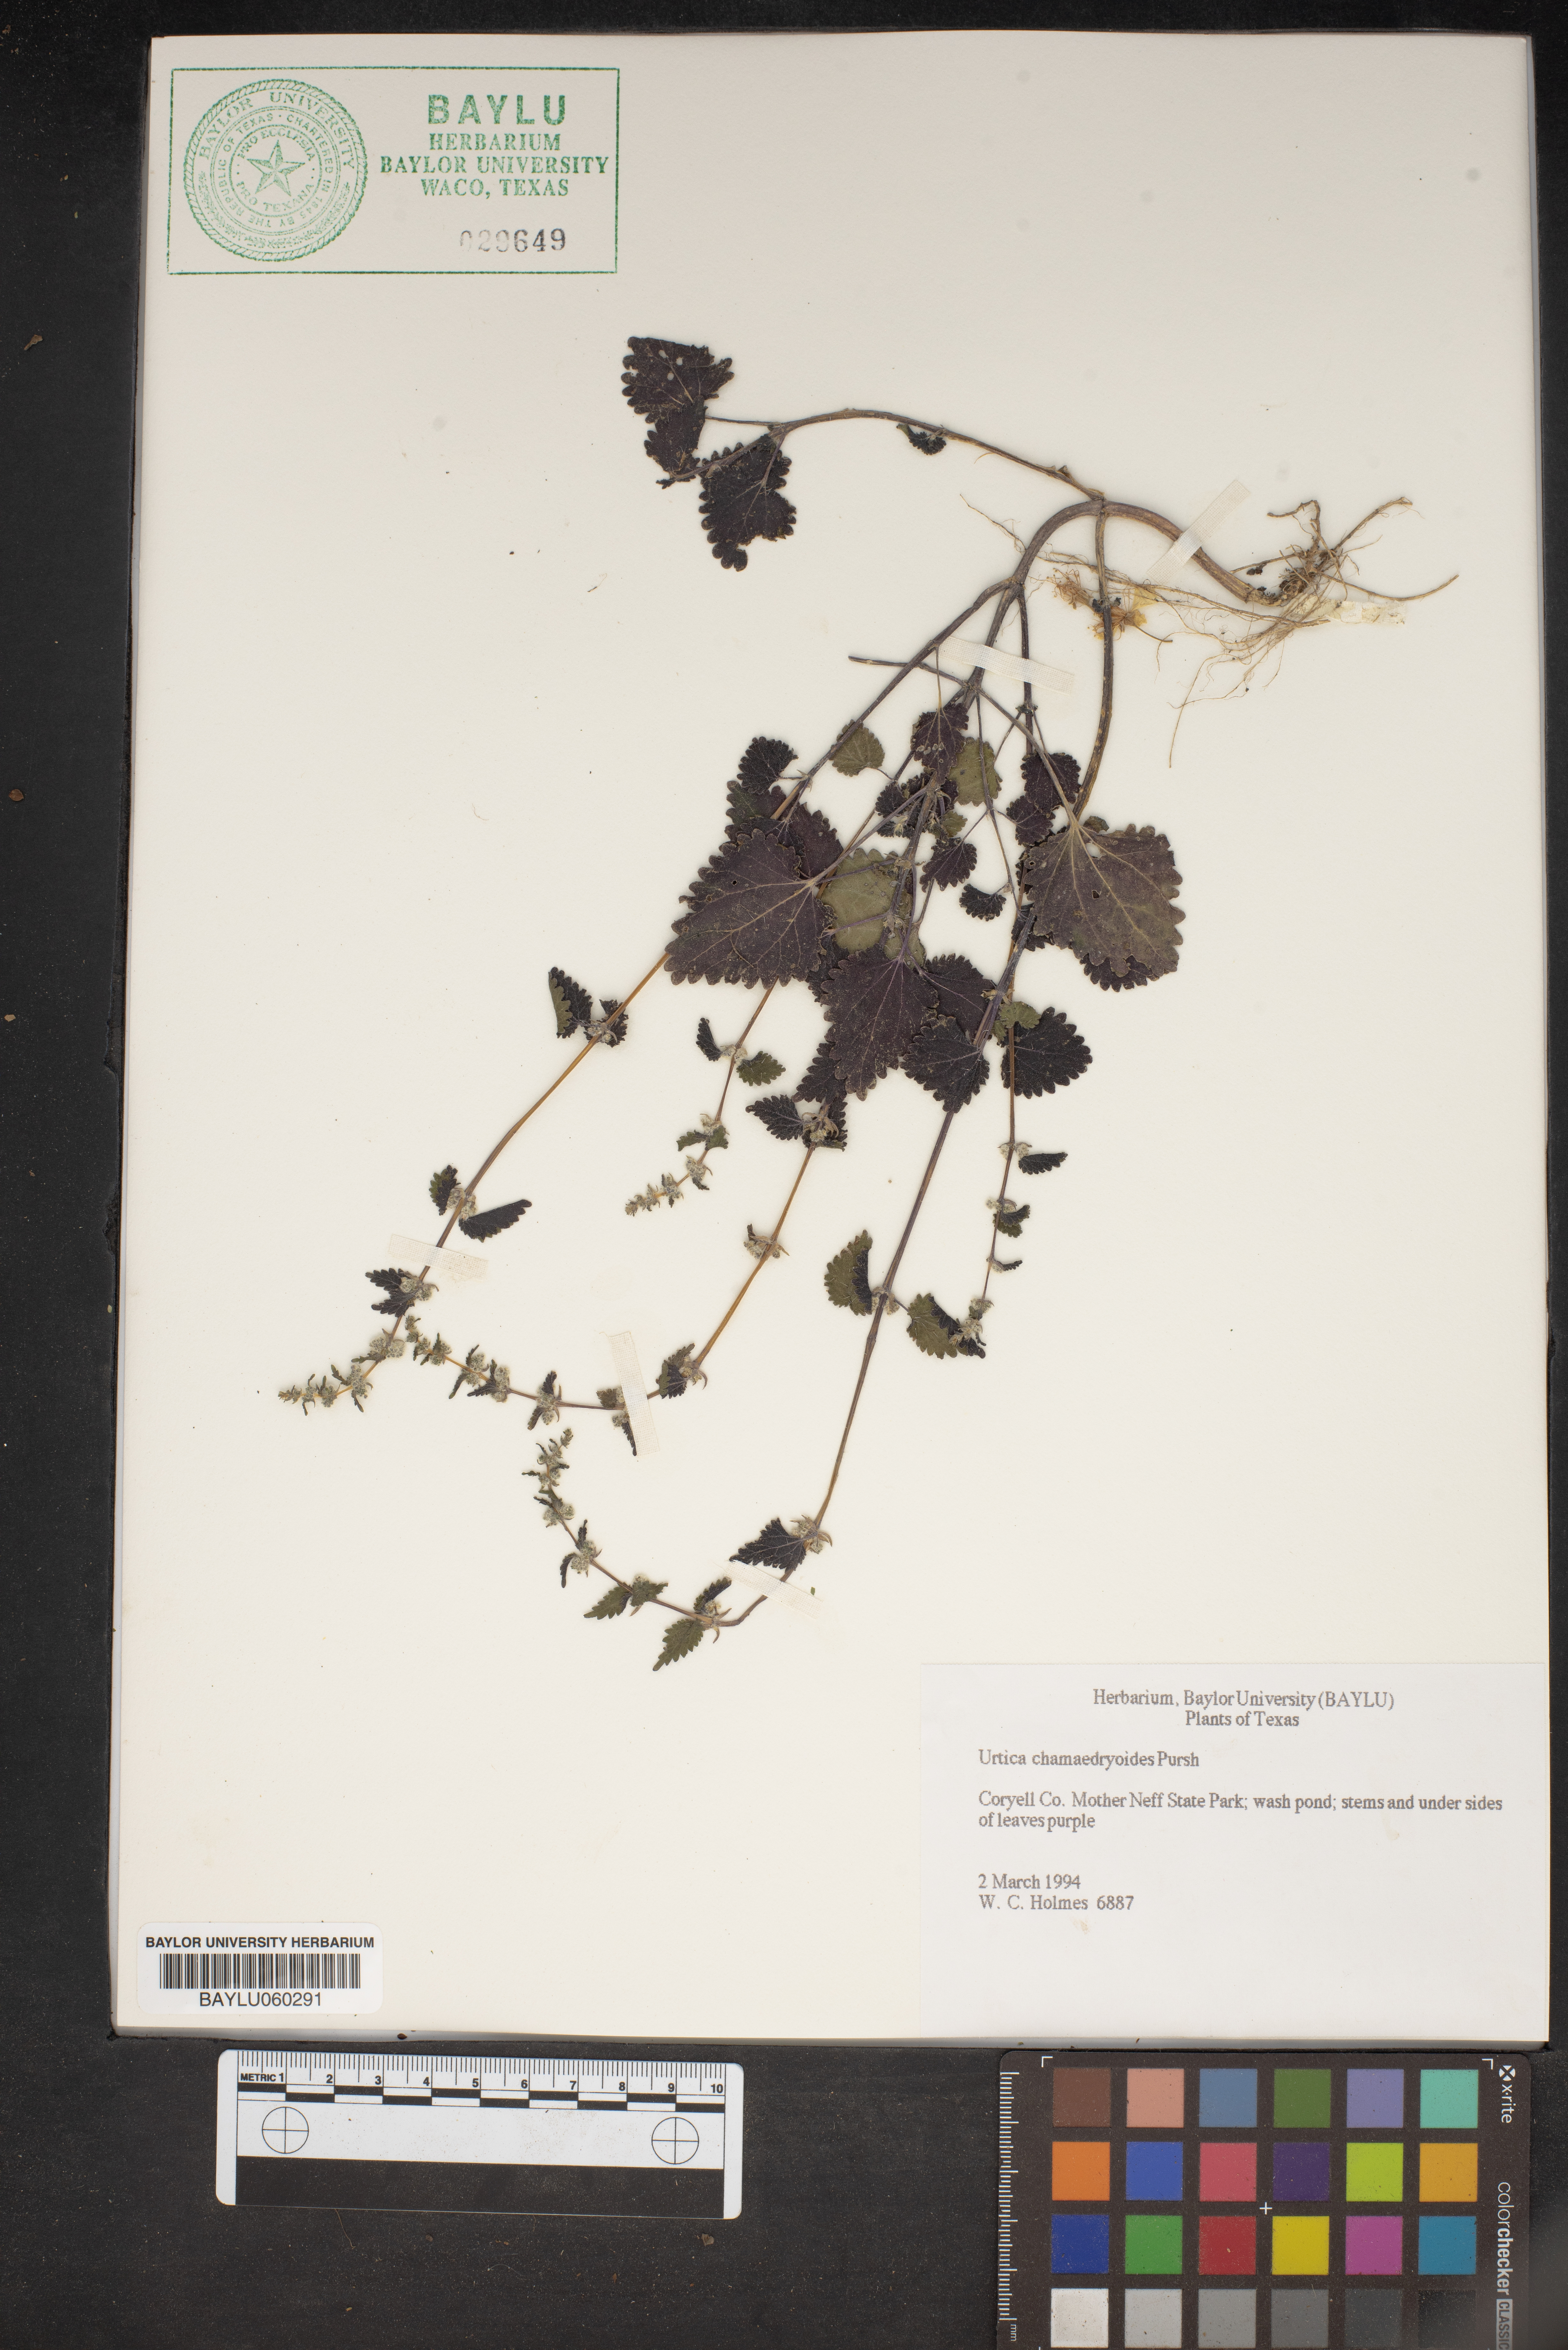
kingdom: Plantae
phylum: Tracheophyta
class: Magnoliopsida
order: Rosales
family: Urticaceae
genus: Urtica
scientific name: Urtica chamaedryoides
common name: Heart-leaf nettle
